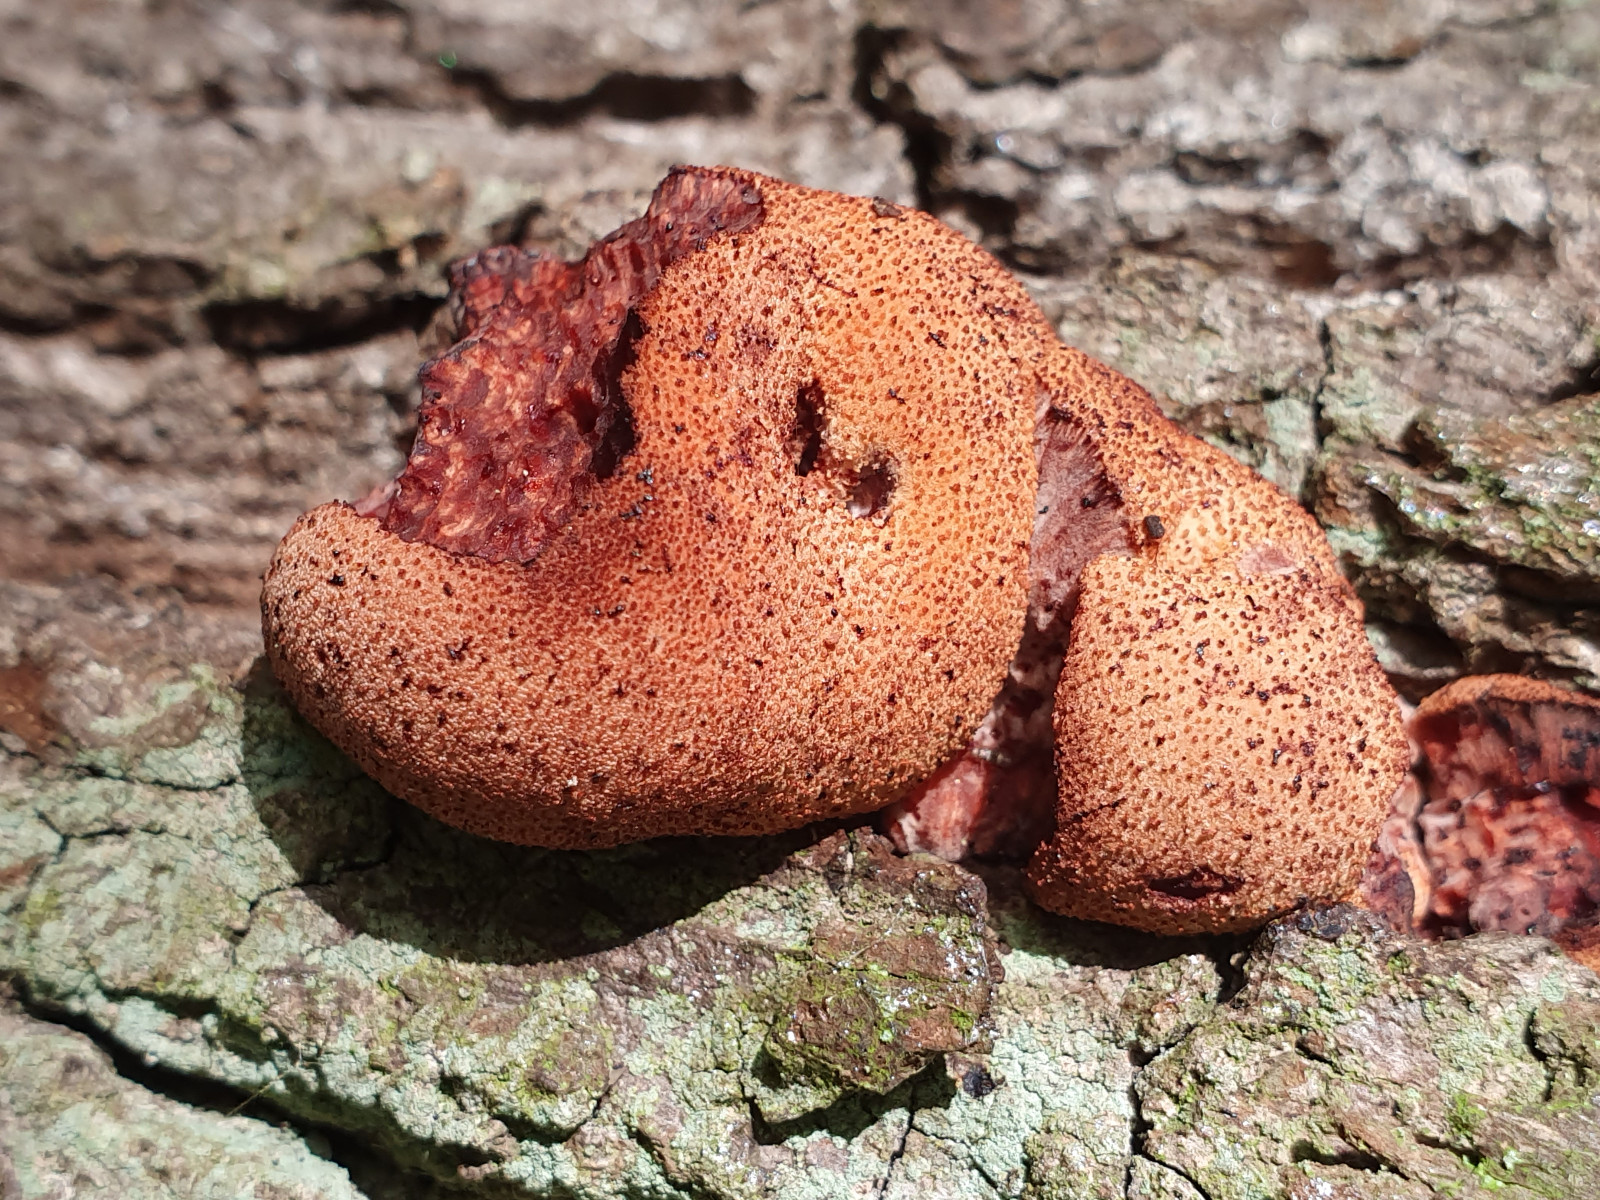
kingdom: Fungi
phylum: Basidiomycota
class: Agaricomycetes
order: Agaricales
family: Fistulinaceae
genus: Fistulina
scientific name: Fistulina hepatica
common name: oksetunge
